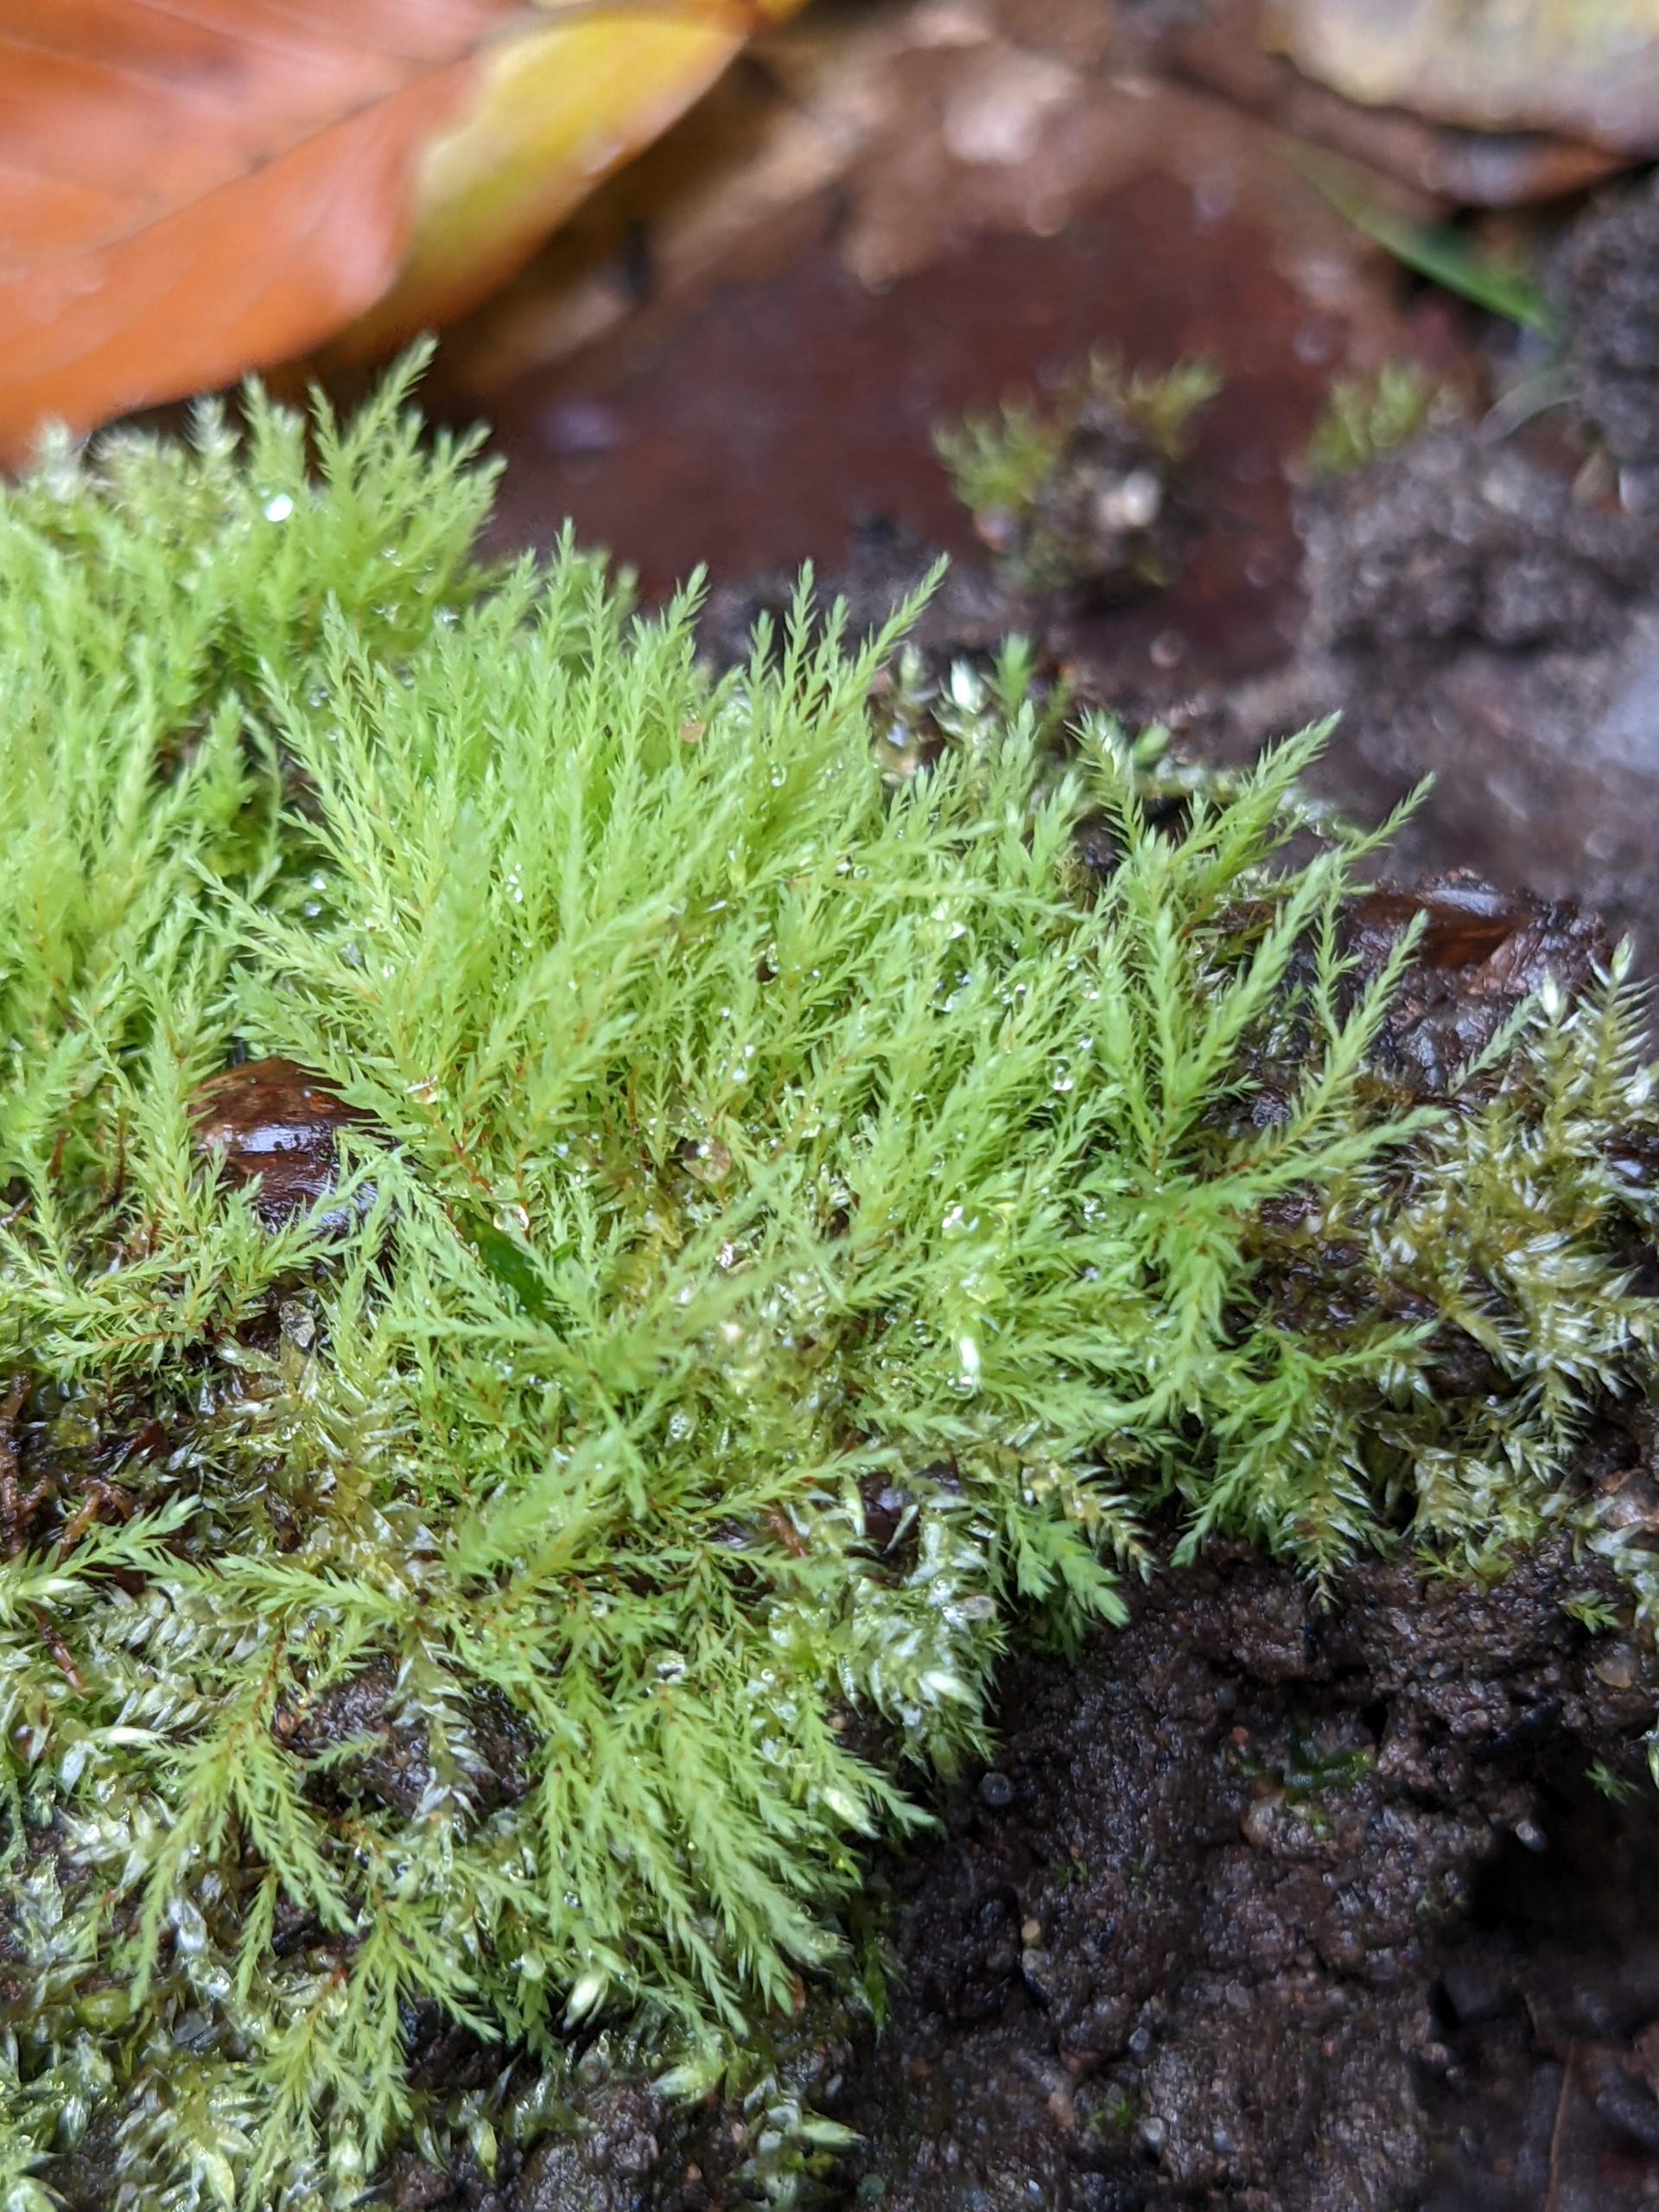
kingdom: Plantae
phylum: Bryophyta
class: Bryopsida
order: Bryales
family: Mniaceae
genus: Pohlia
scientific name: Pohlia wahlenbergii
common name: Lysegrøn voksmos
